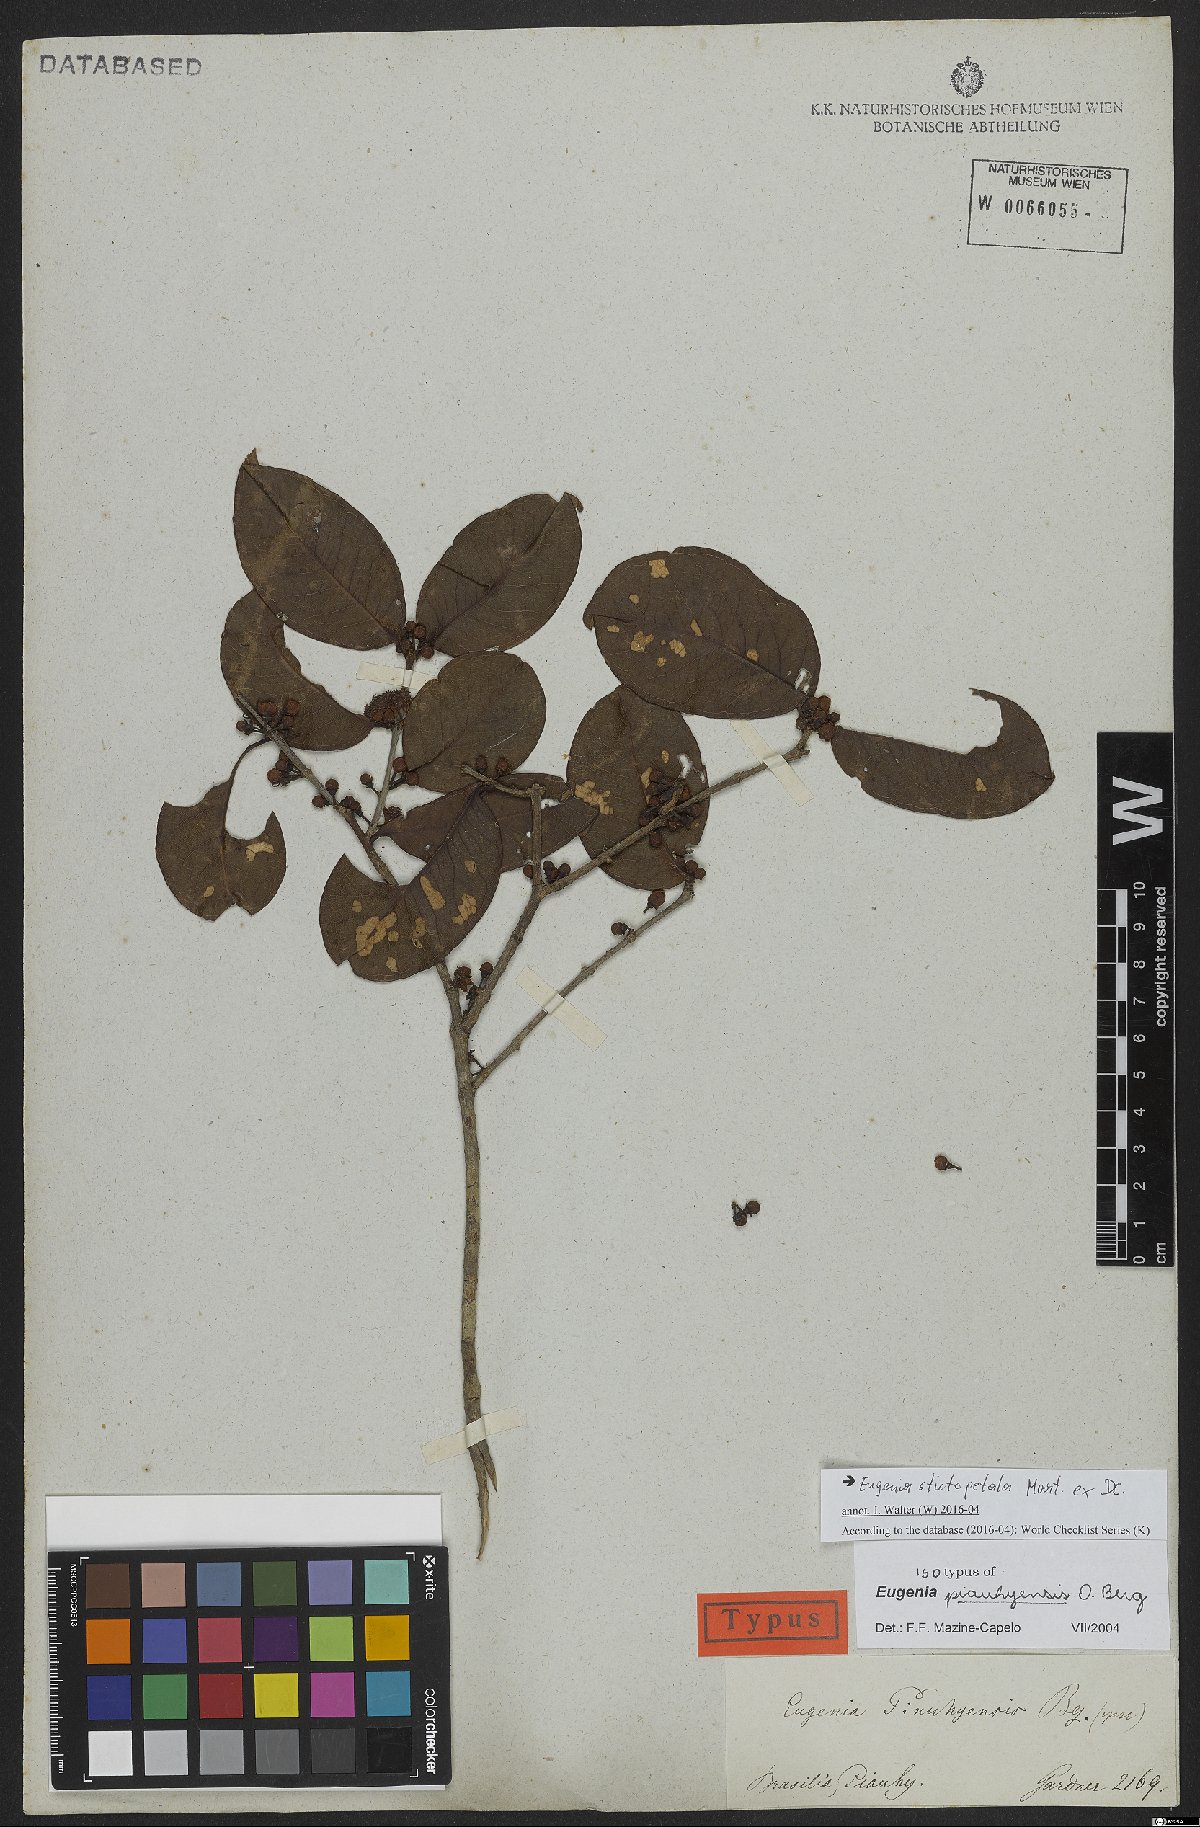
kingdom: Plantae
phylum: Tracheophyta
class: Magnoliopsida
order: Myrtales
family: Myrtaceae
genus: Eugenia
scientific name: Eugenia stictopetala
